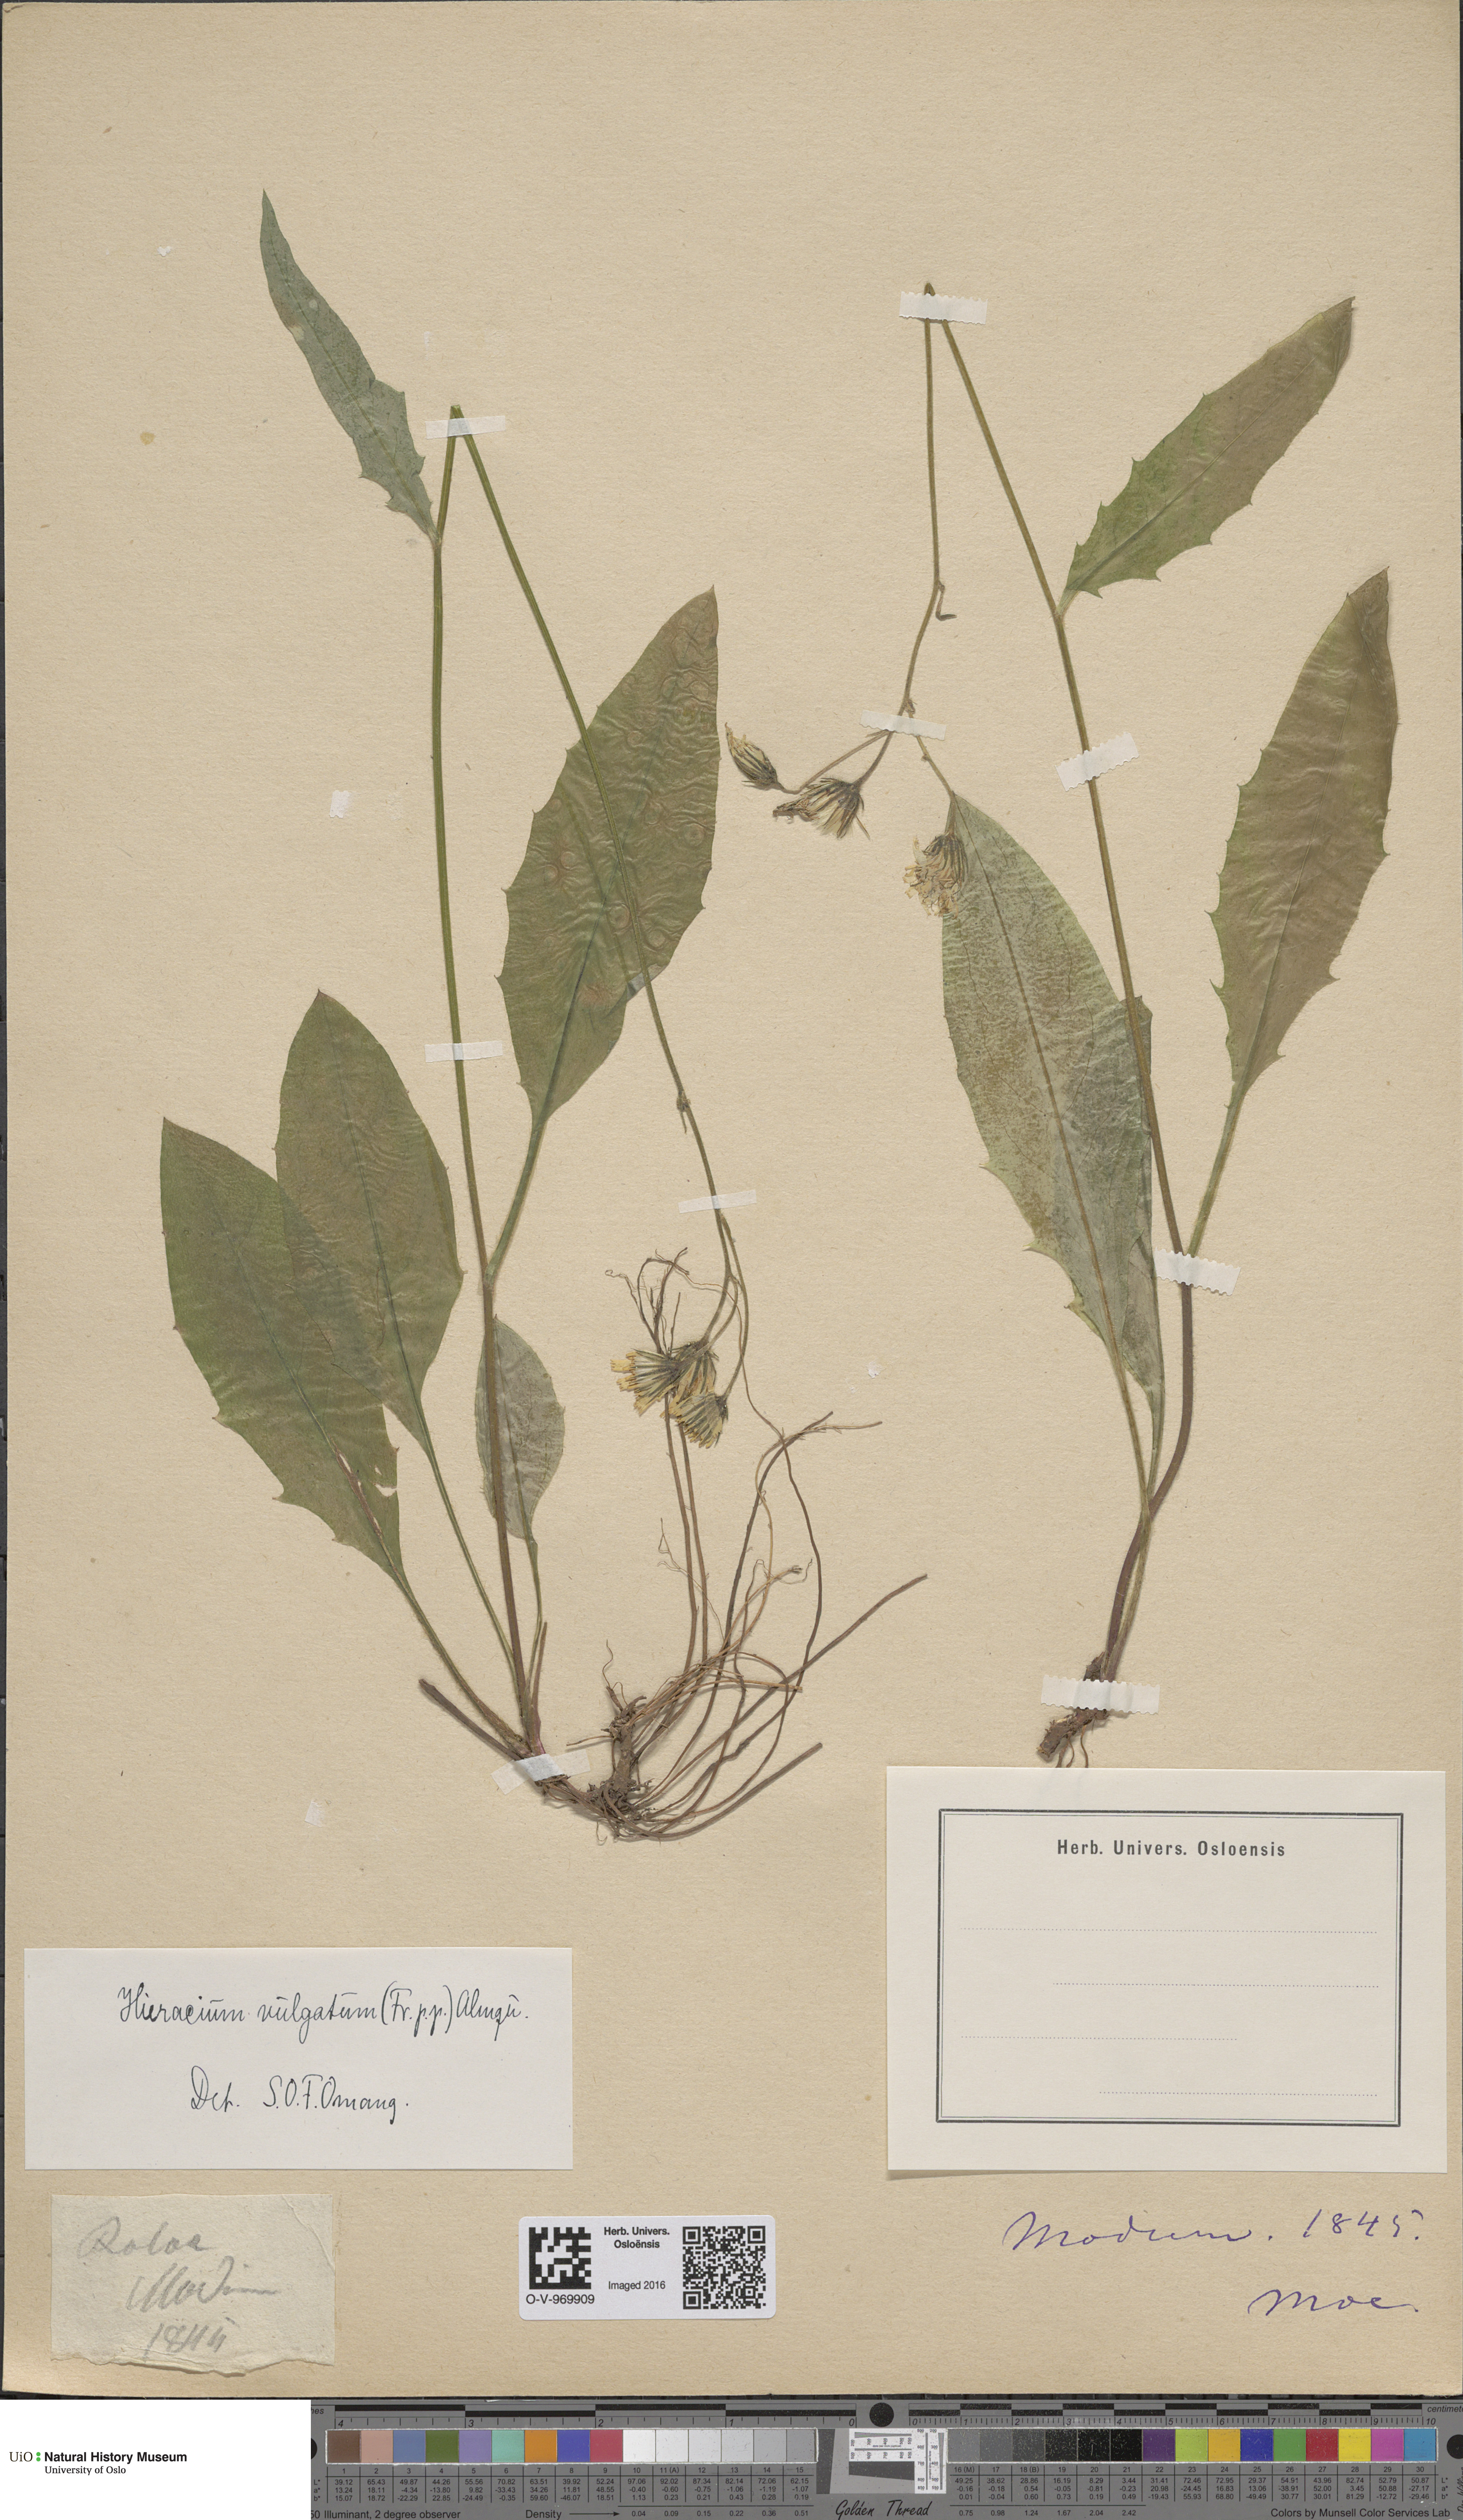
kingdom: Plantae
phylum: Tracheophyta
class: Magnoliopsida
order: Asterales
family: Asteraceae
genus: Hieracium
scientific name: Hieracium vulgatum
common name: Common hawkweed
